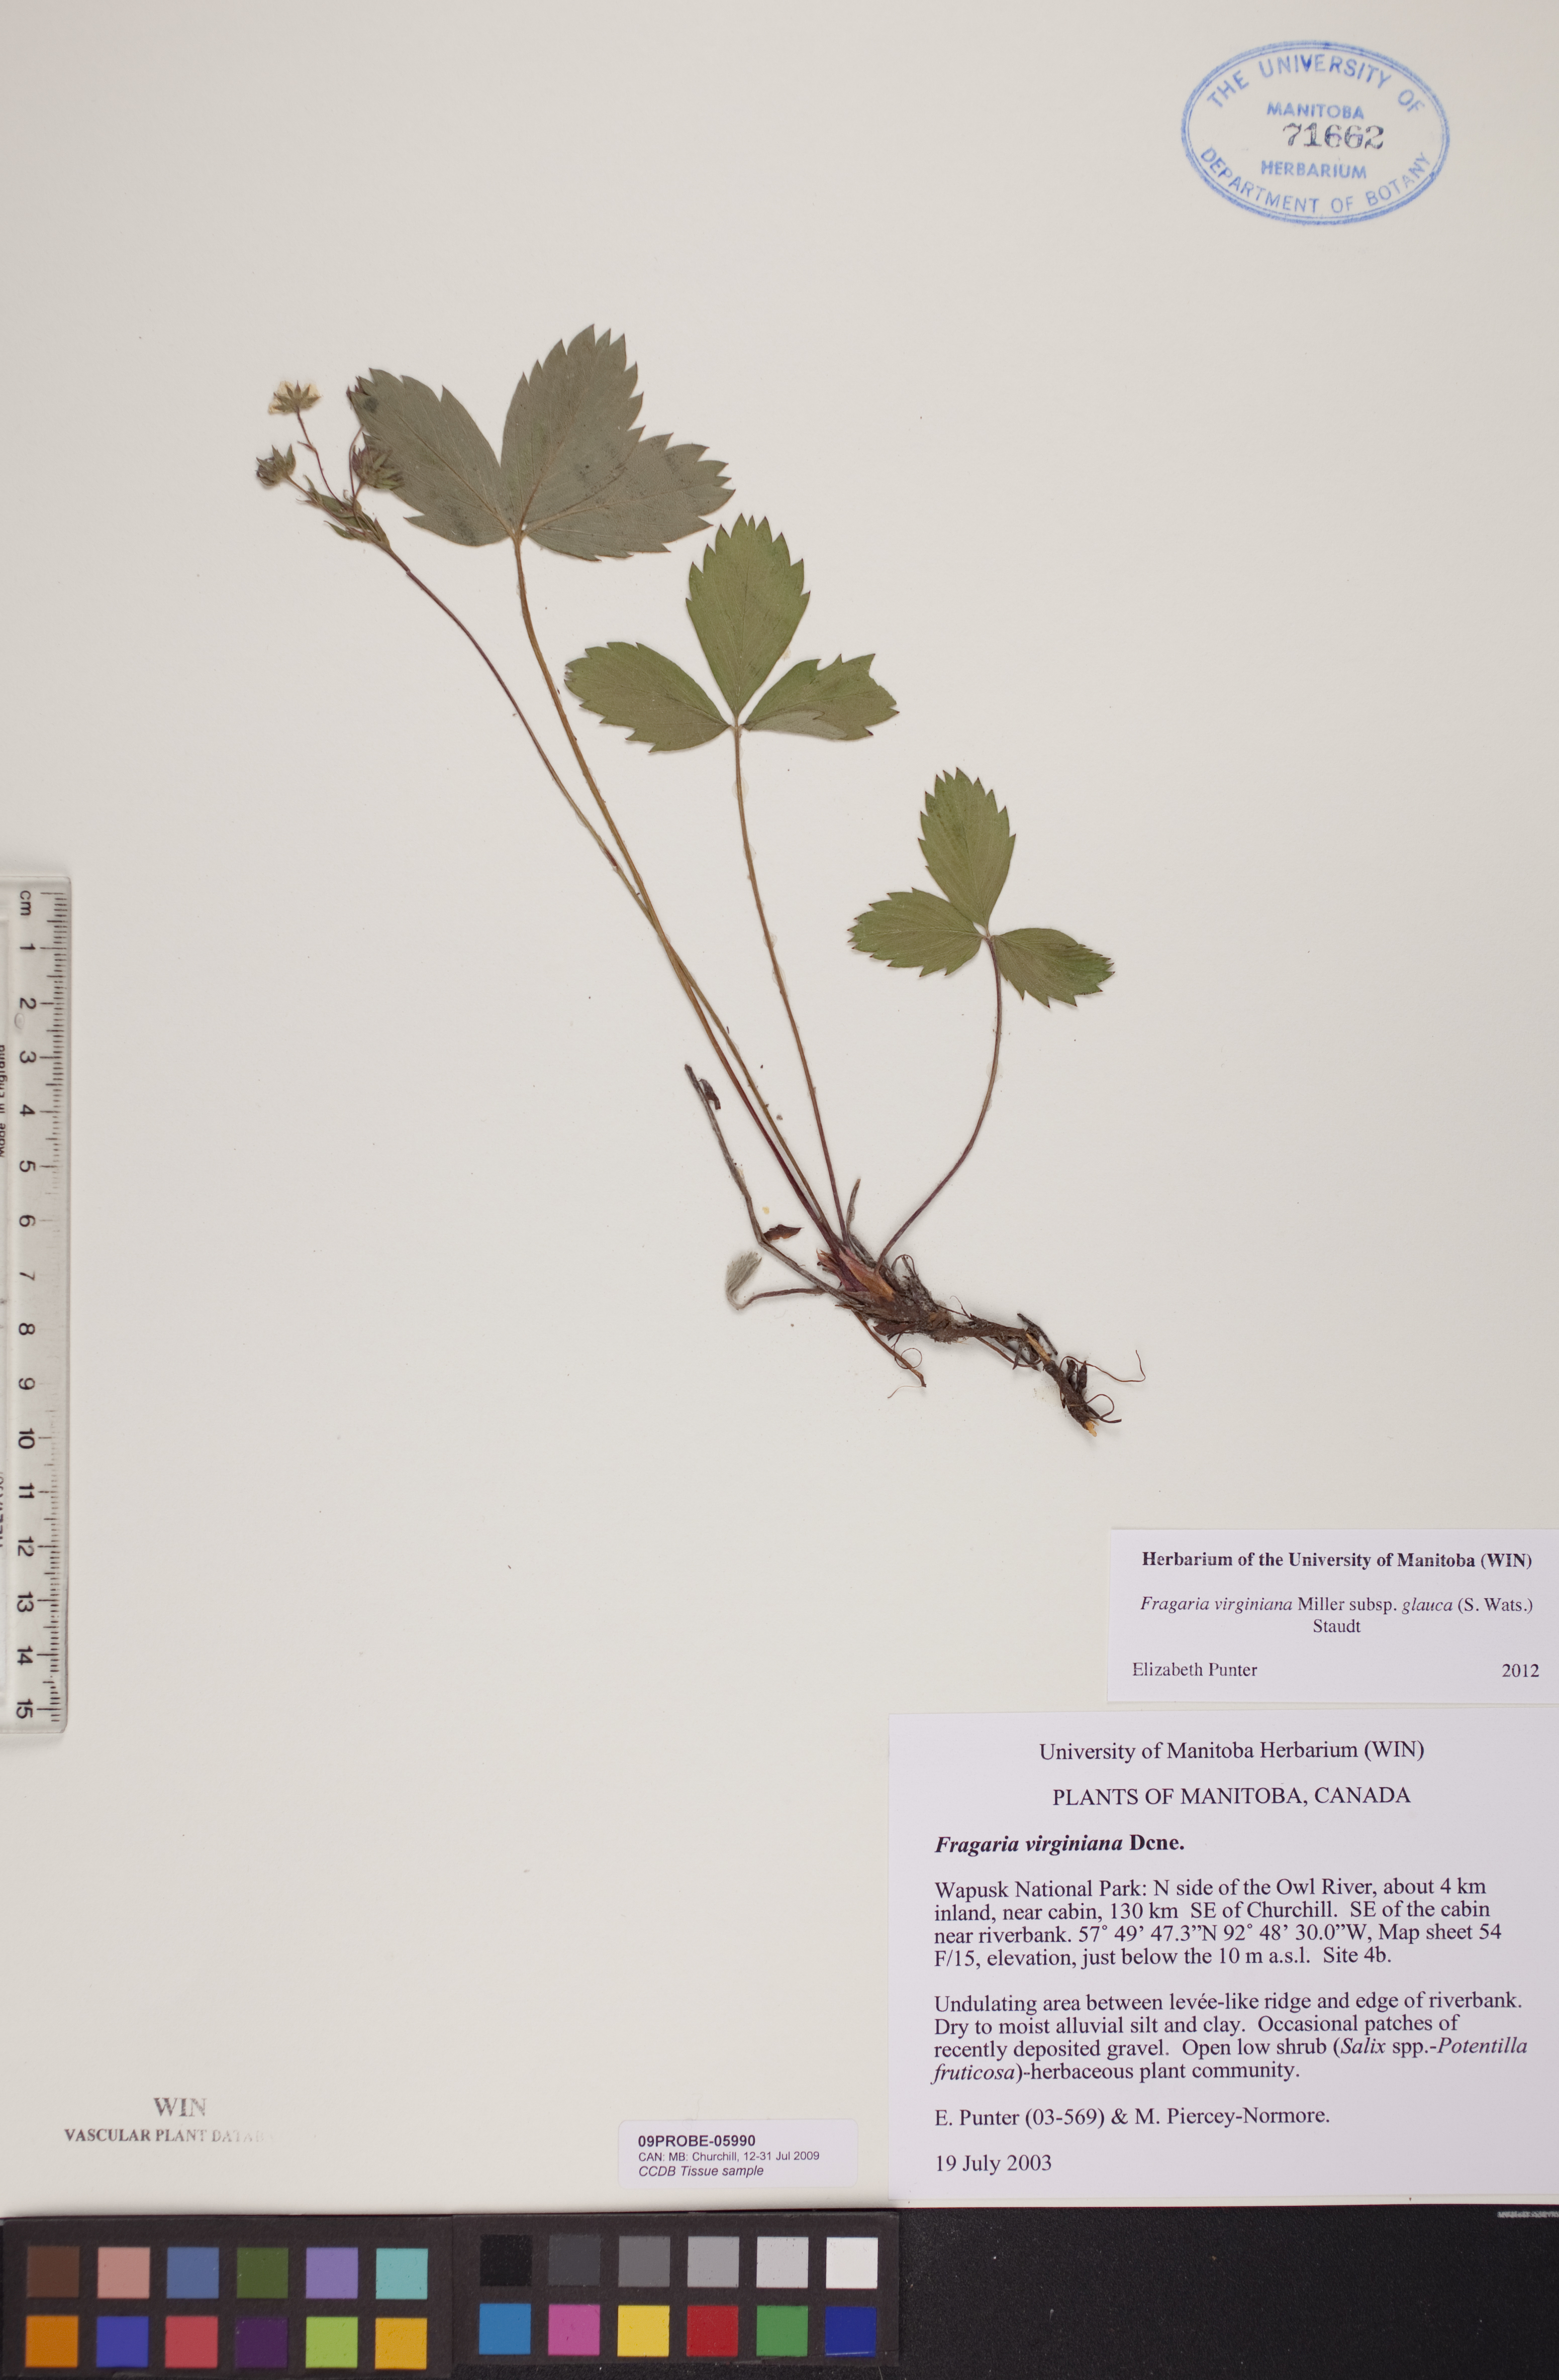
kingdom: Plantae
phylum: Tracheophyta
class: Magnoliopsida
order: Rosales
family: Rosaceae
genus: Fragaria
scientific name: Fragaria virginiana
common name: Thickleaved wild strawberry
